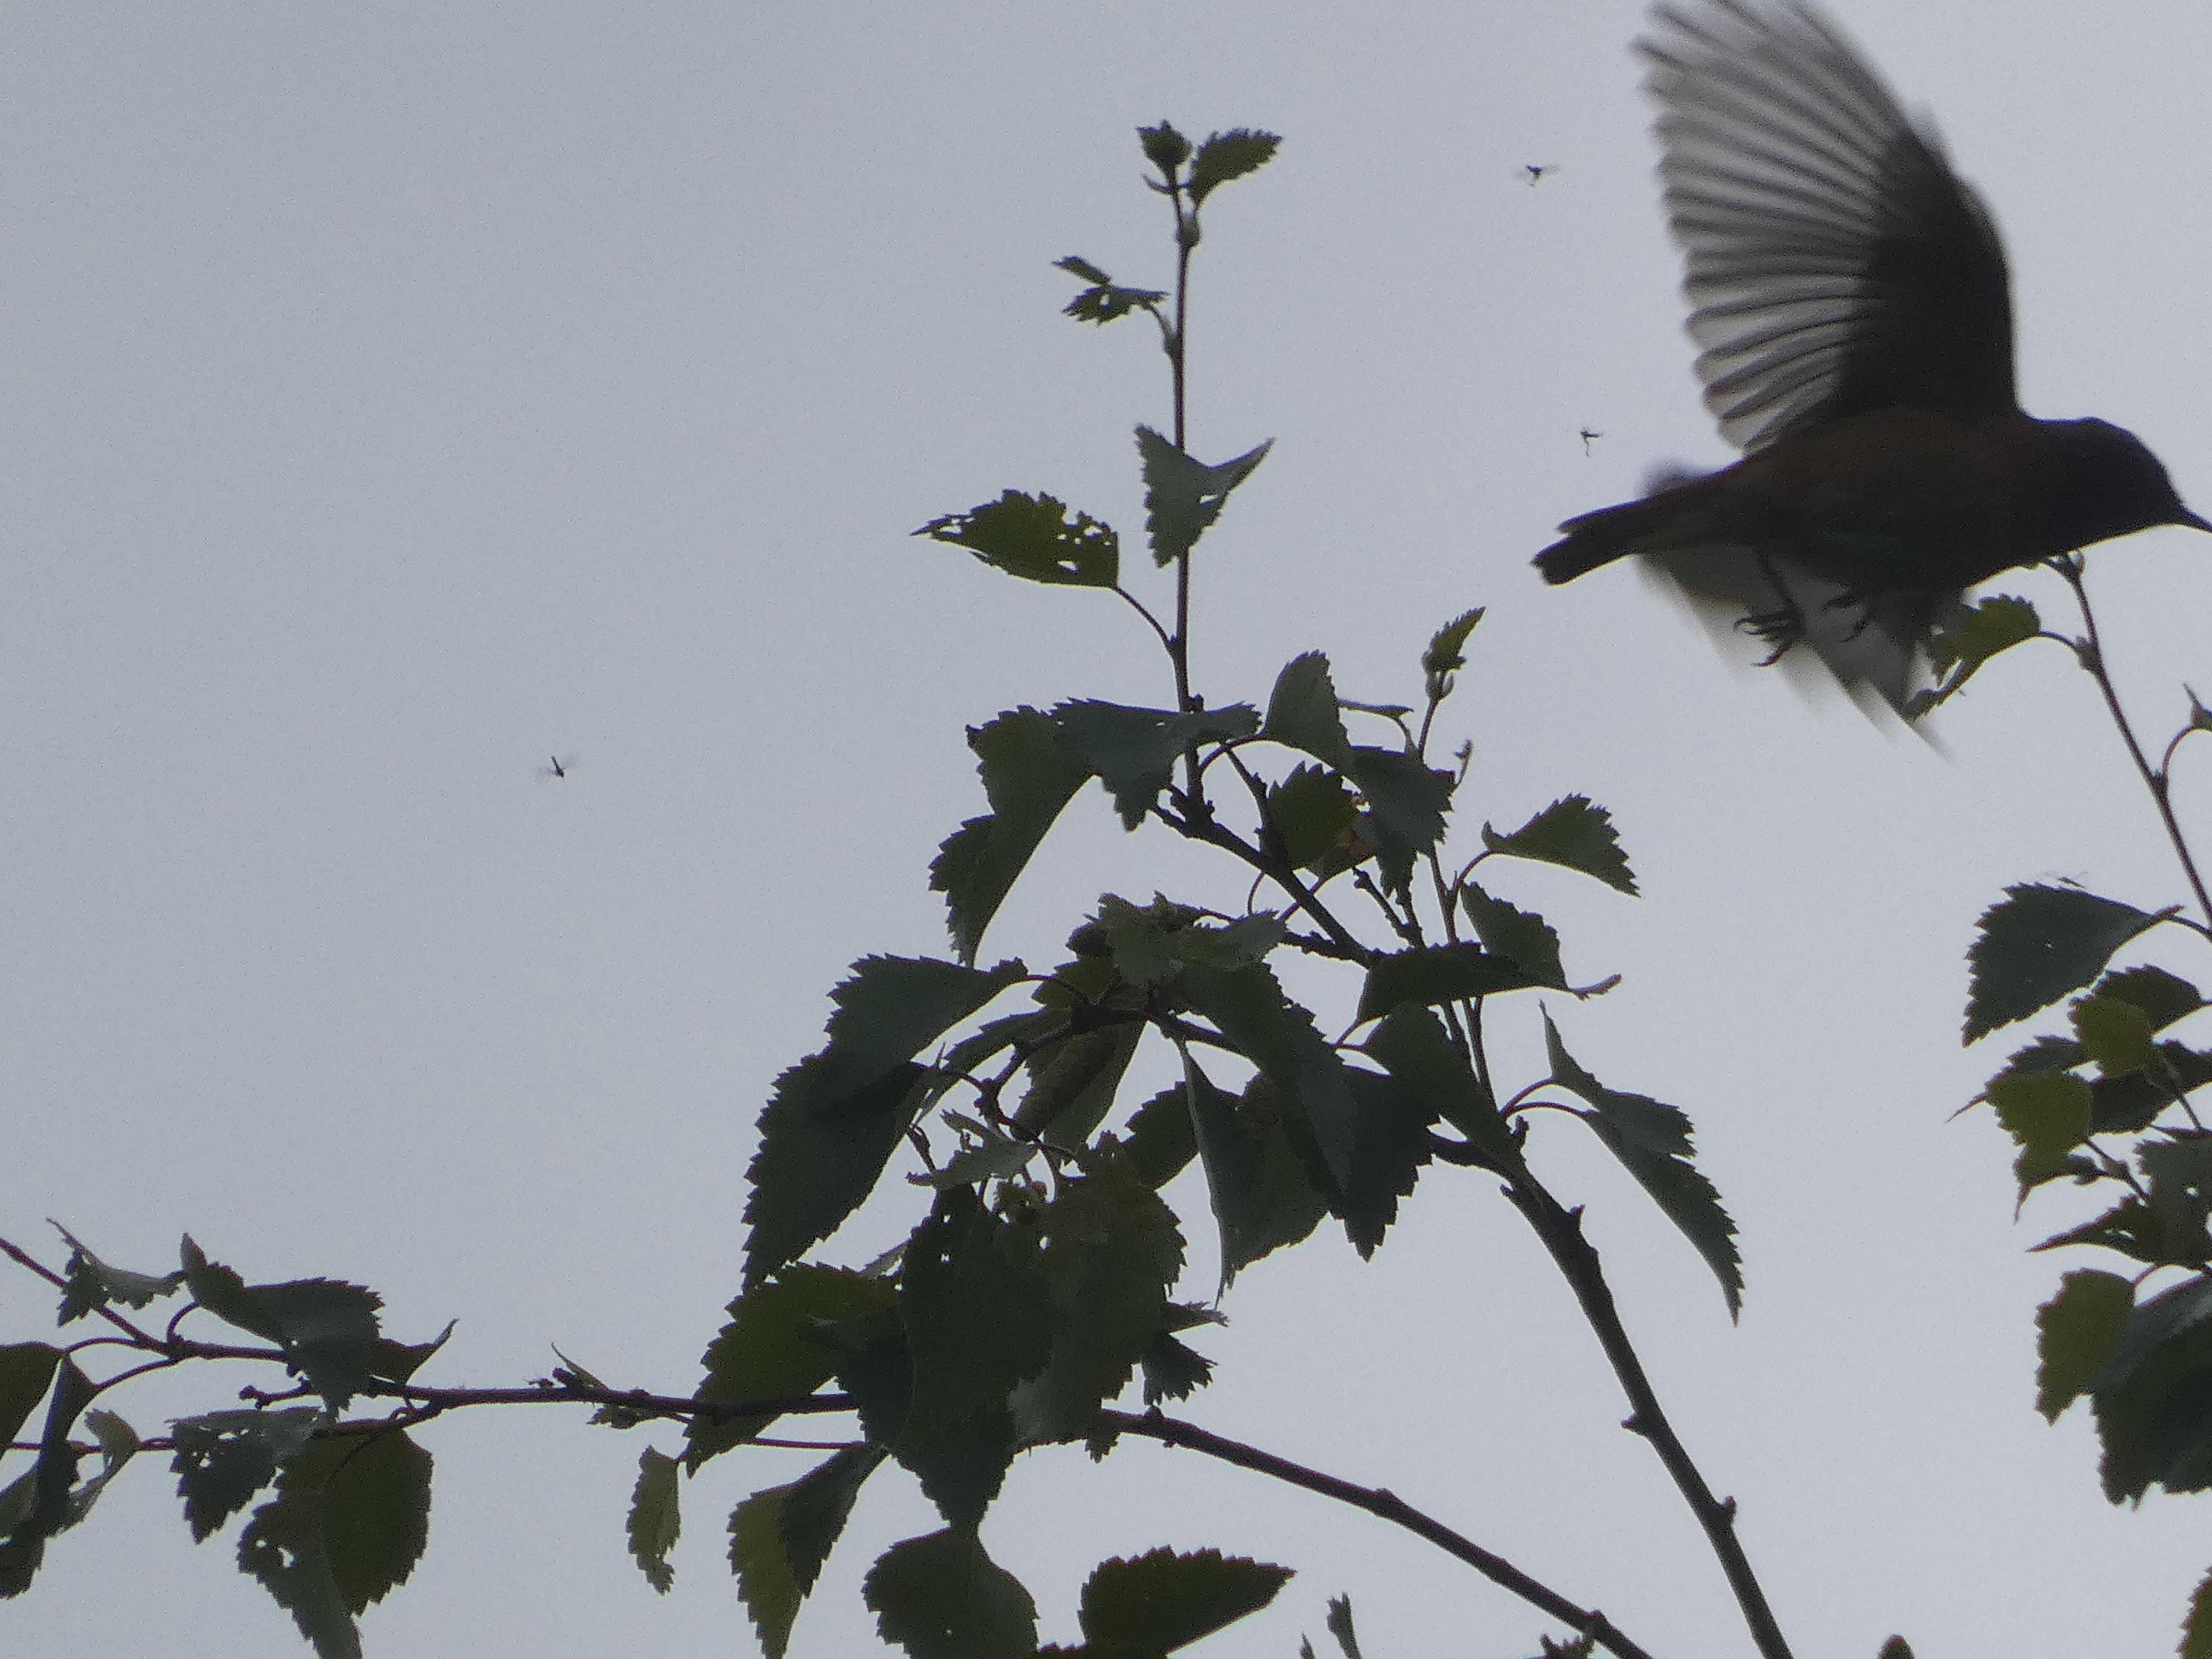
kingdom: Animalia
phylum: Chordata
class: Aves
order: Passeriformes
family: Muscicapidae
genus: Phoenicurus
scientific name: Phoenicurus phoenicurus
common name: Rødstjert
